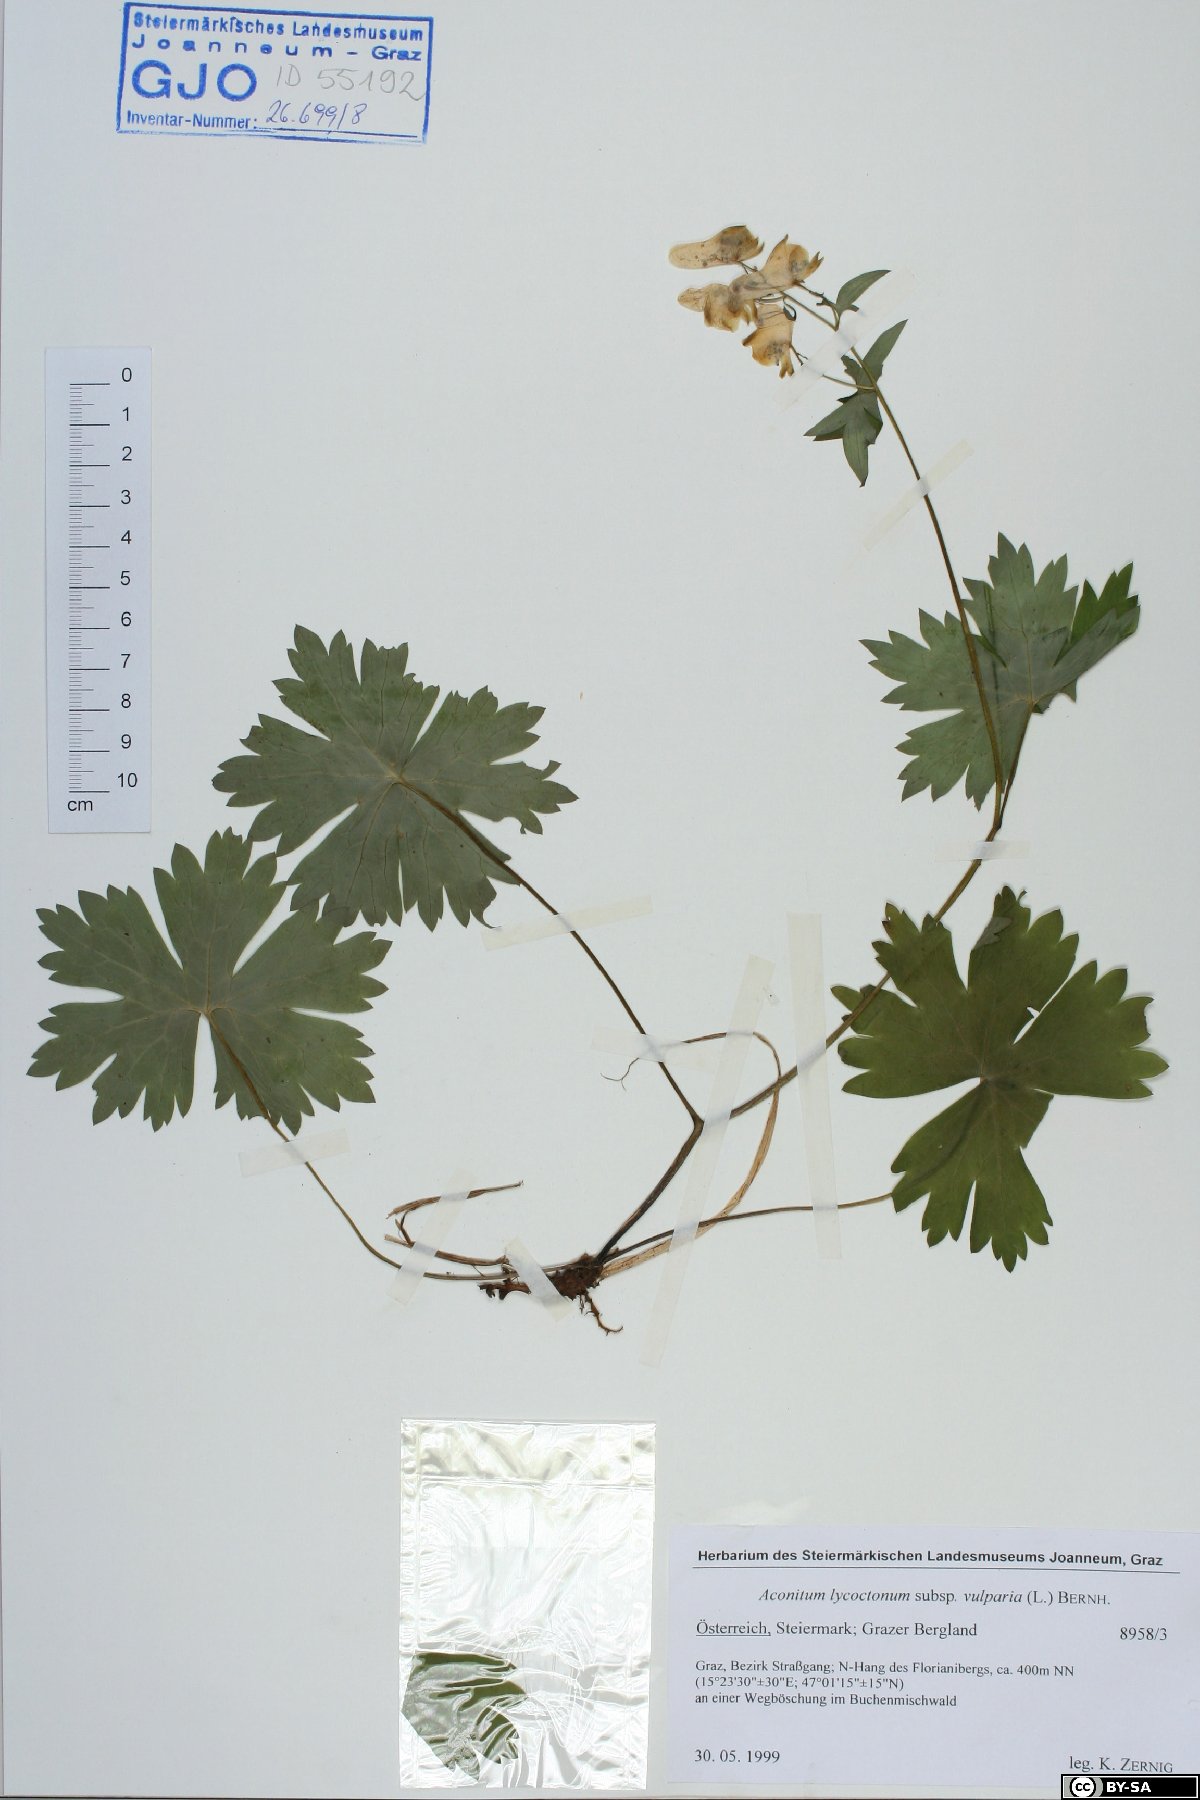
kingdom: Plantae
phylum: Tracheophyta
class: Magnoliopsida
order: Ranunculales
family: Ranunculaceae
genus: Aconitum
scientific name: Aconitum lycoctonum
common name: Wolf's-bane
